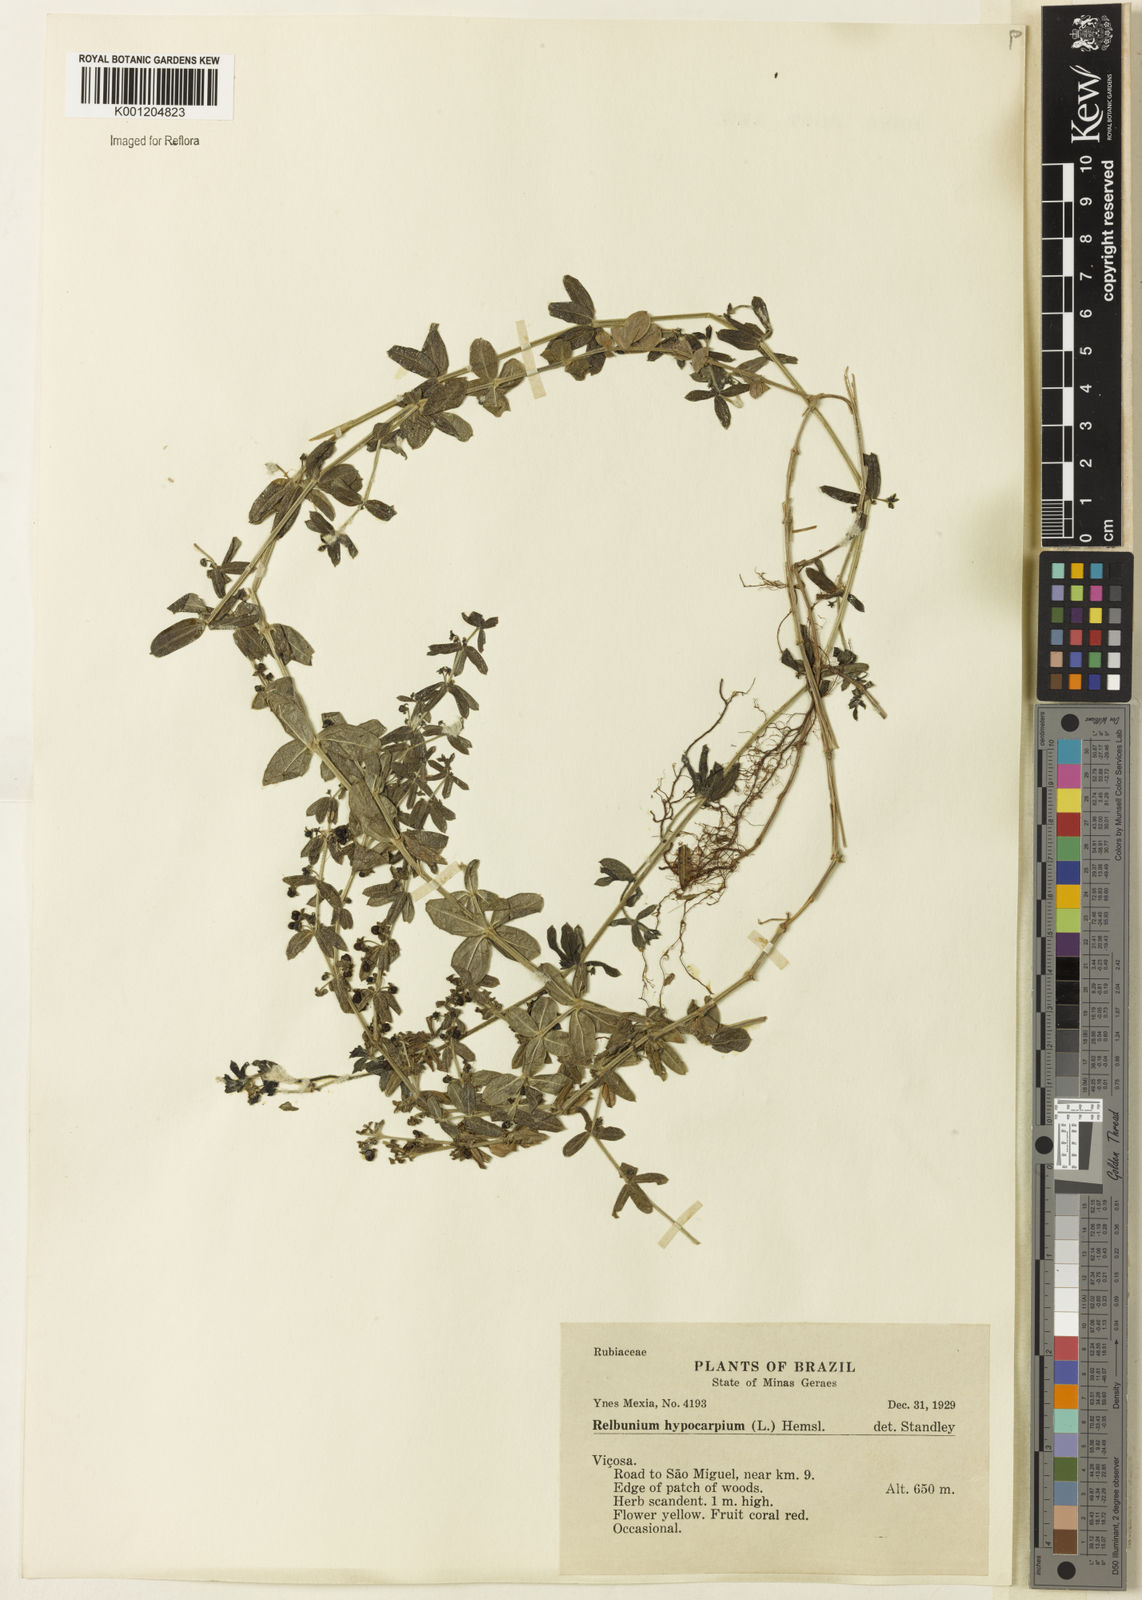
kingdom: Plantae
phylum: Tracheophyta
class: Magnoliopsida
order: Gentianales
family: Rubiaceae
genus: Galium
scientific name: Galium hypocarpium
